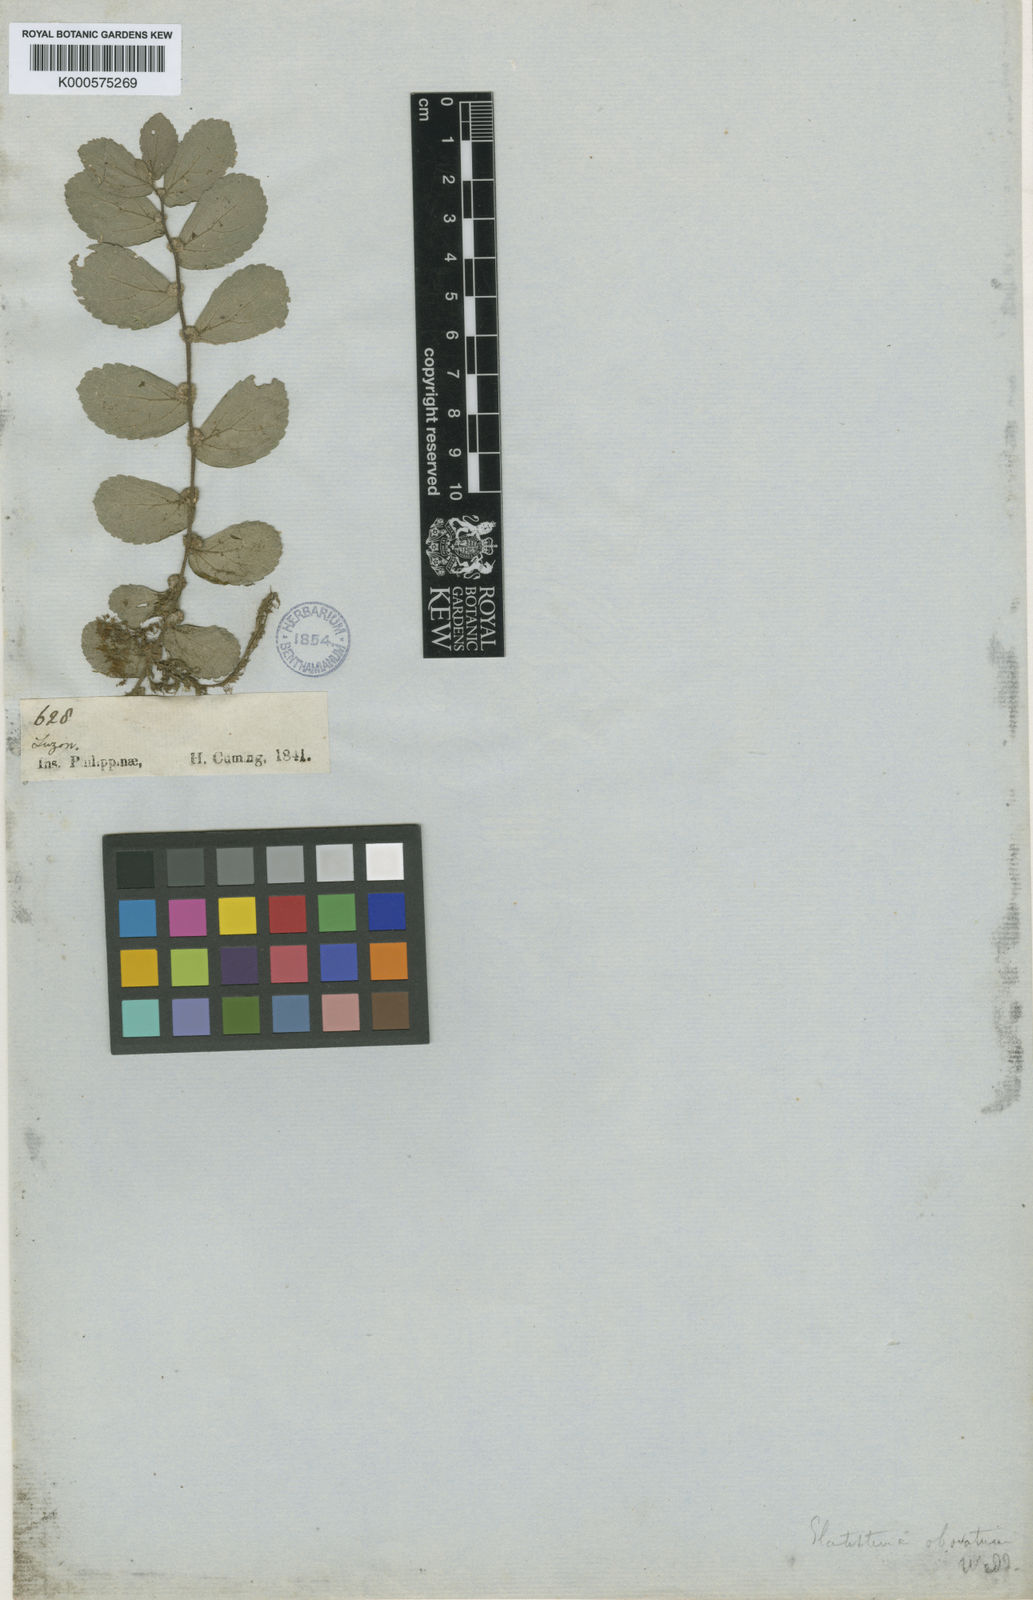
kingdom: Plantae
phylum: Tracheophyta
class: Magnoliopsida
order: Rosales
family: Urticaceae
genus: Elatostema
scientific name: Elatostema obovatum
